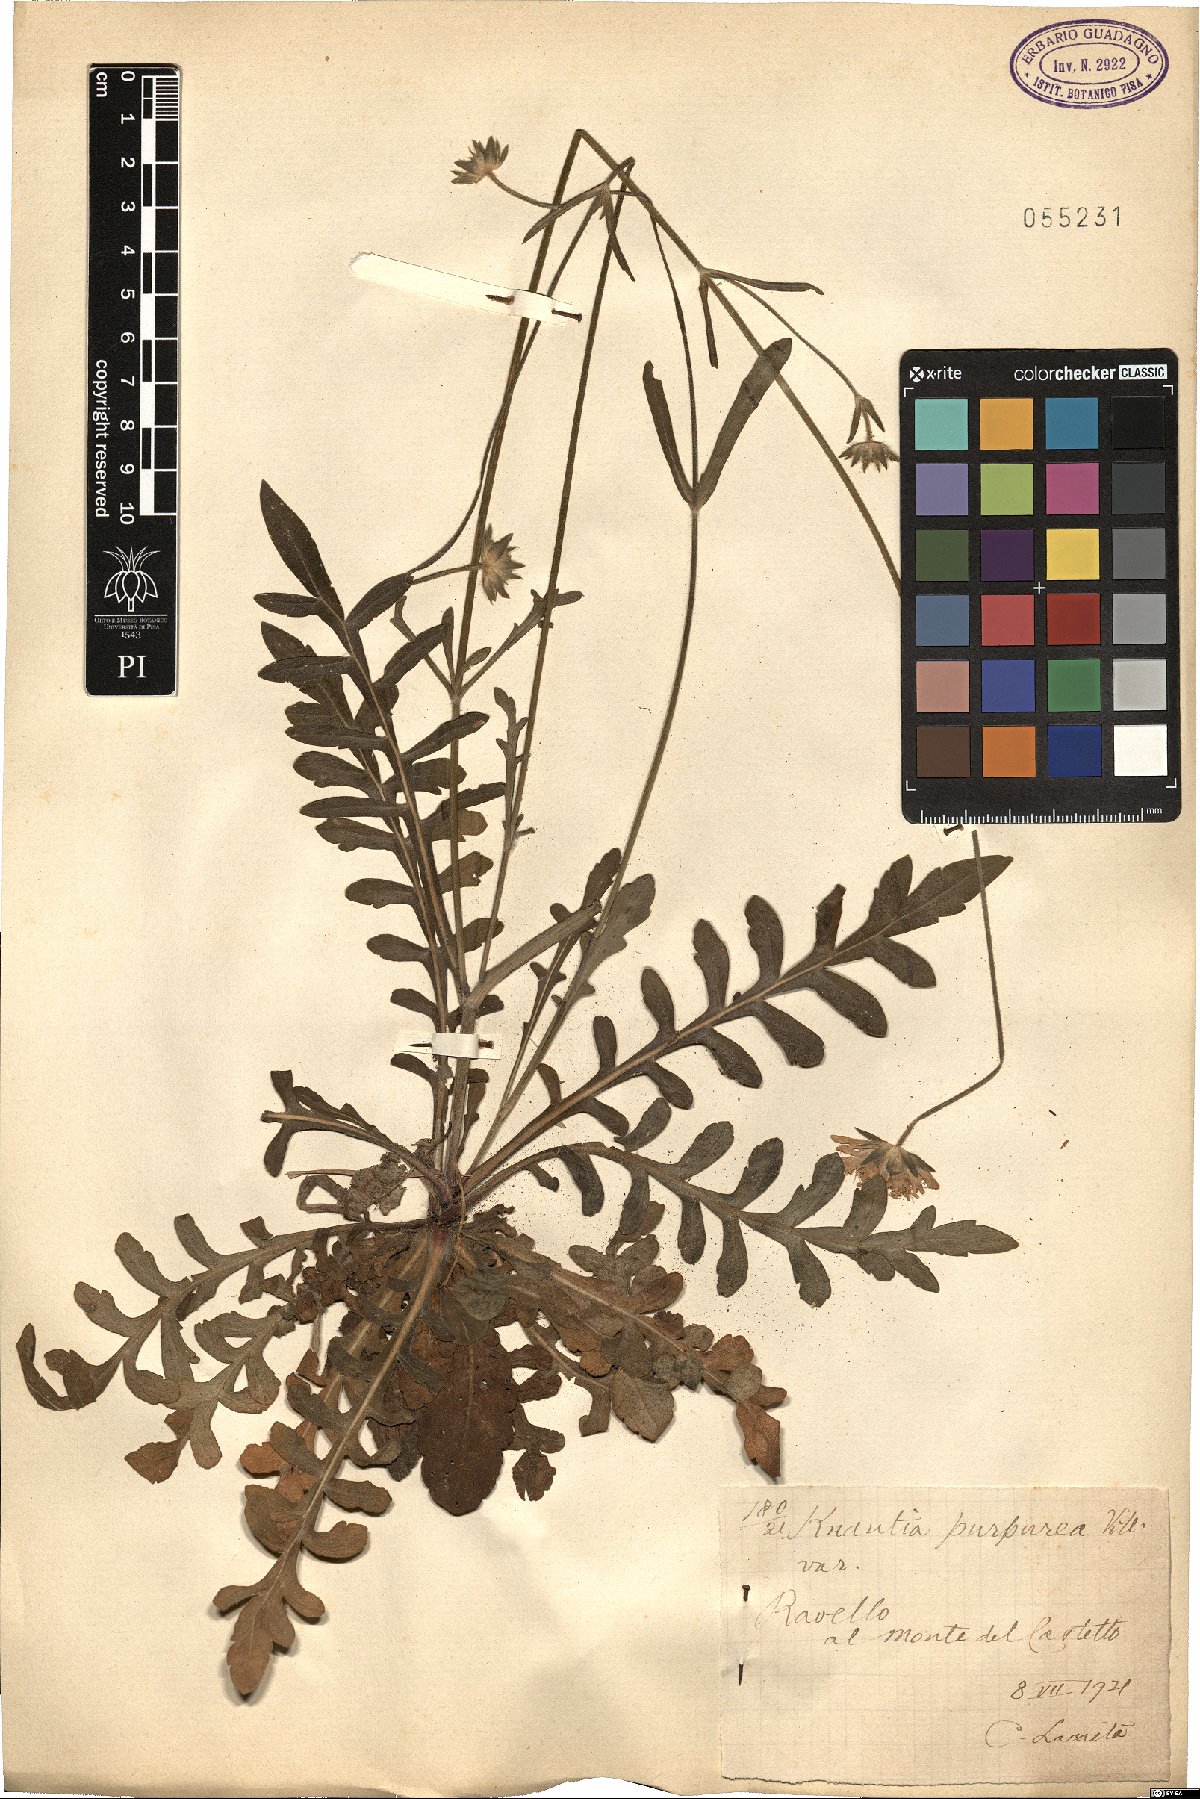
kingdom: Plantae
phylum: Tracheophyta
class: Magnoliopsida
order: Dipsacales
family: Caprifoliaceae
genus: Knautia
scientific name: Knautia collina
